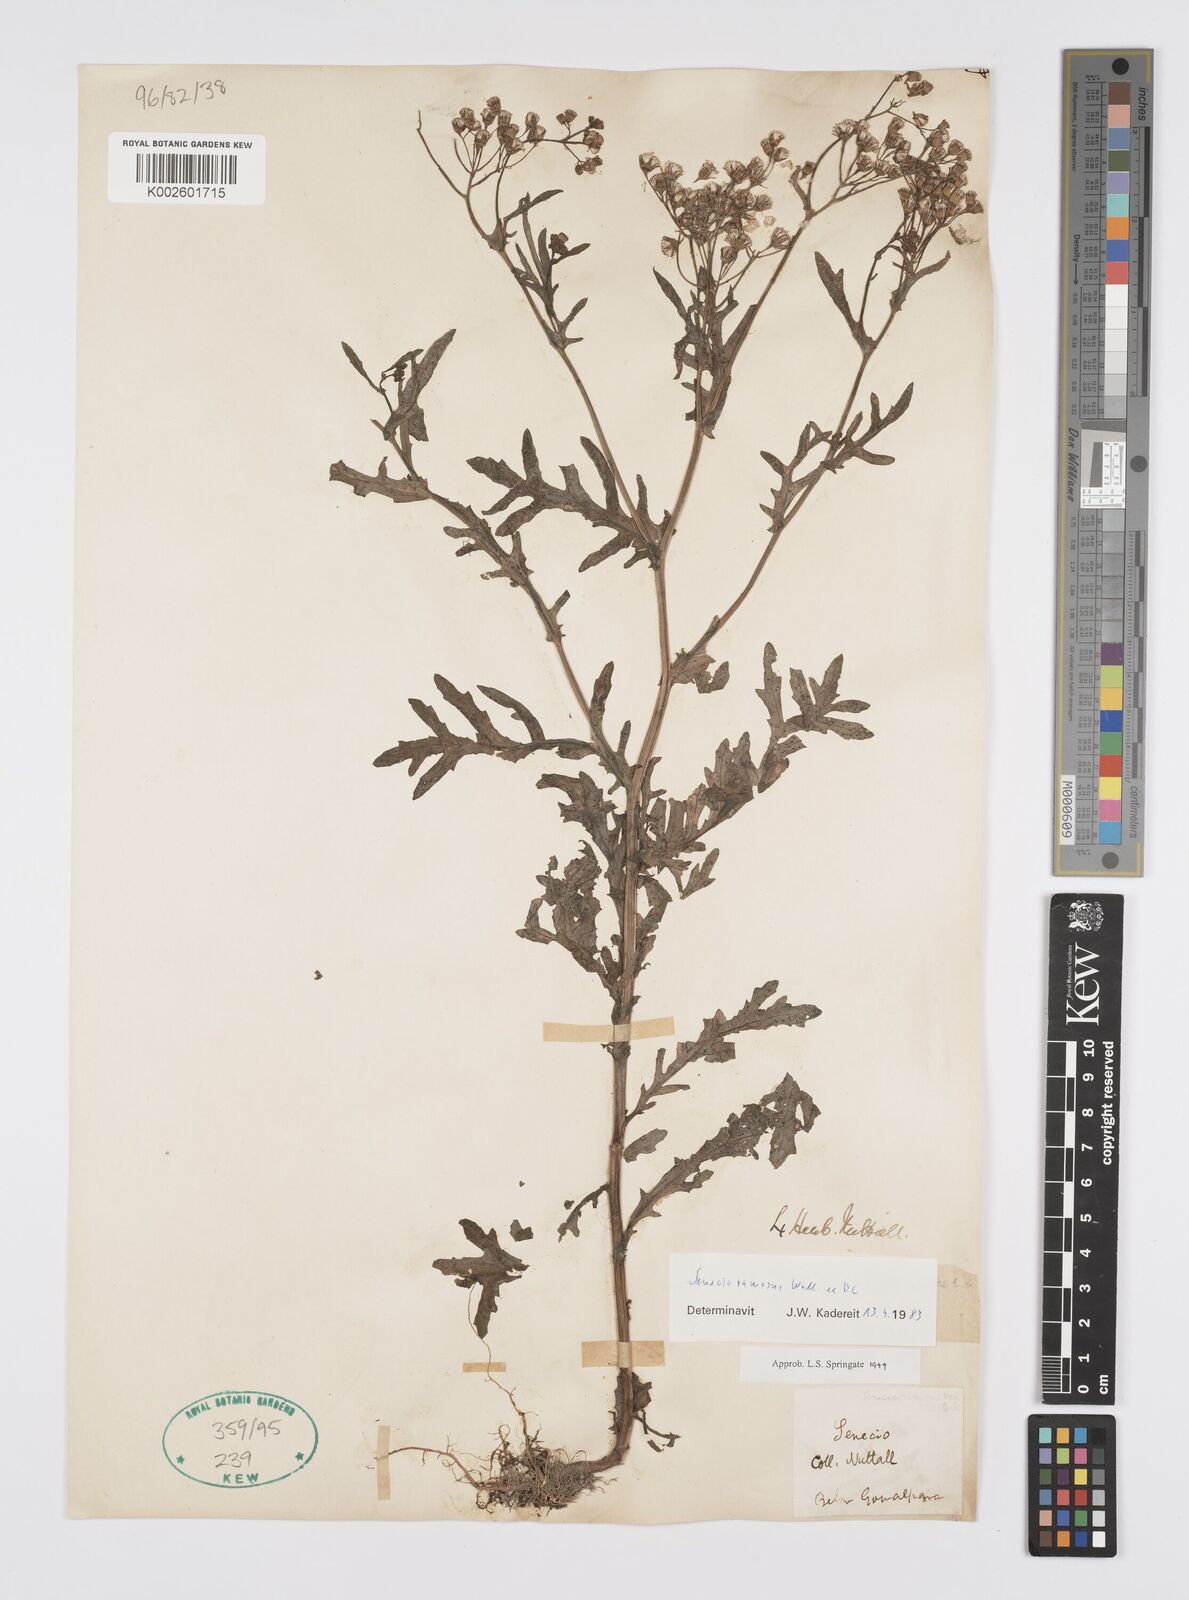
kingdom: Plantae
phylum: Tracheophyta
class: Magnoliopsida
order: Asterales
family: Asteraceae
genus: Senecio
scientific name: Senecio ramosus
